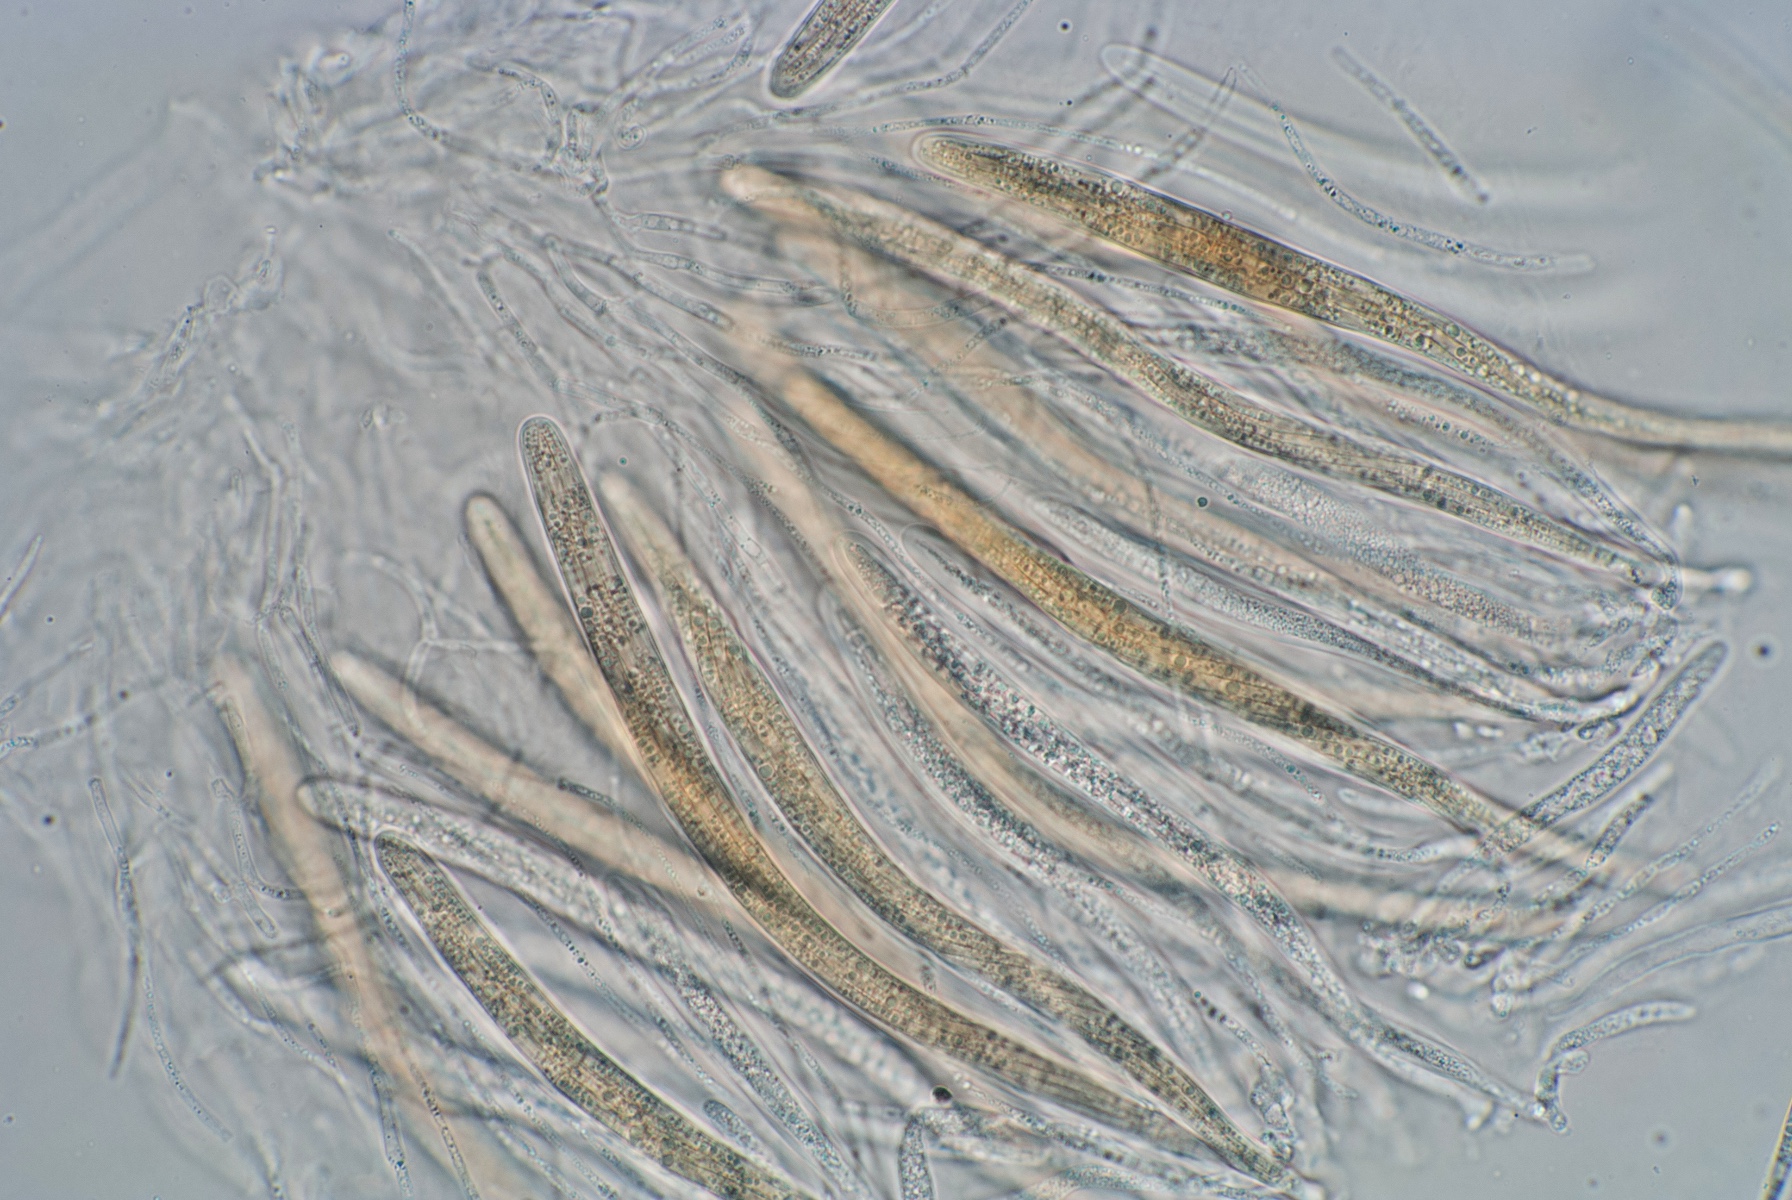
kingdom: Fungi
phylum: Ascomycota
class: Sordariomycetes
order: Magnaporthales
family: Magnaporthaceae
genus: Gaeumannomyces
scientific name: Gaeumannomyces tritici
